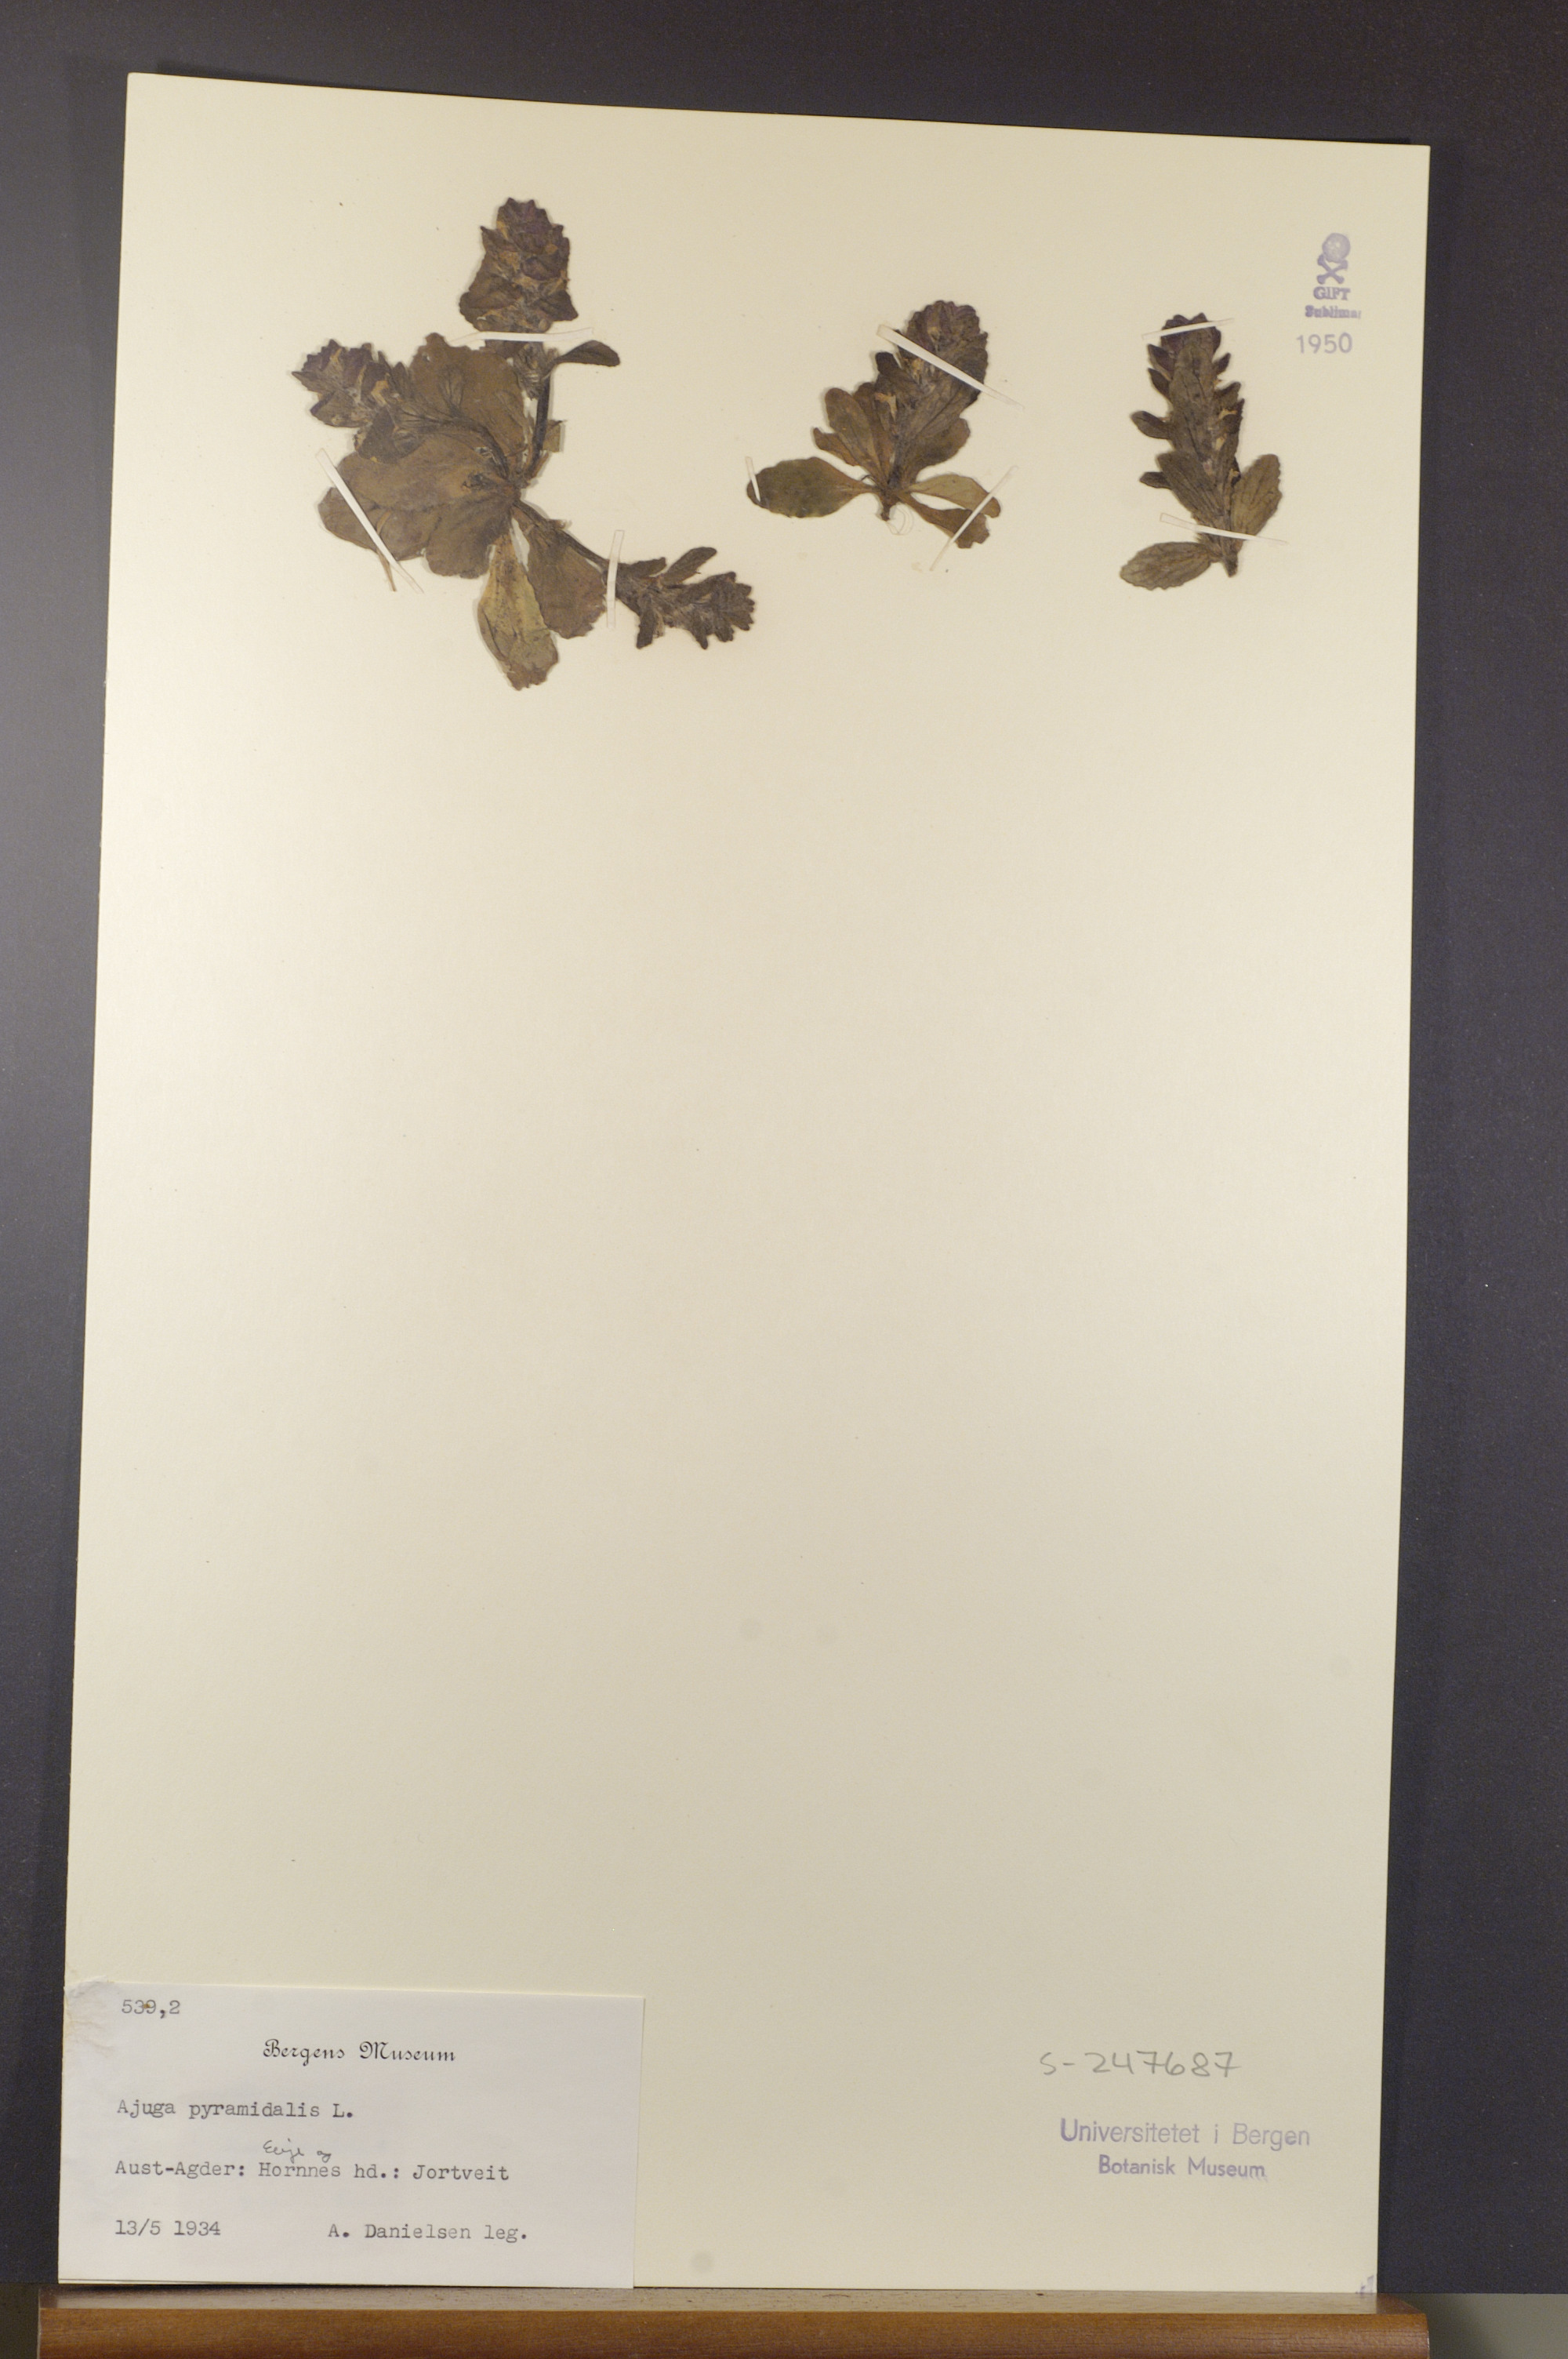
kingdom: Plantae
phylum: Tracheophyta
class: Magnoliopsida
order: Lamiales
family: Lamiaceae
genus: Ajuga
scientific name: Ajuga pyramidalis
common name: Pyramid bugle
